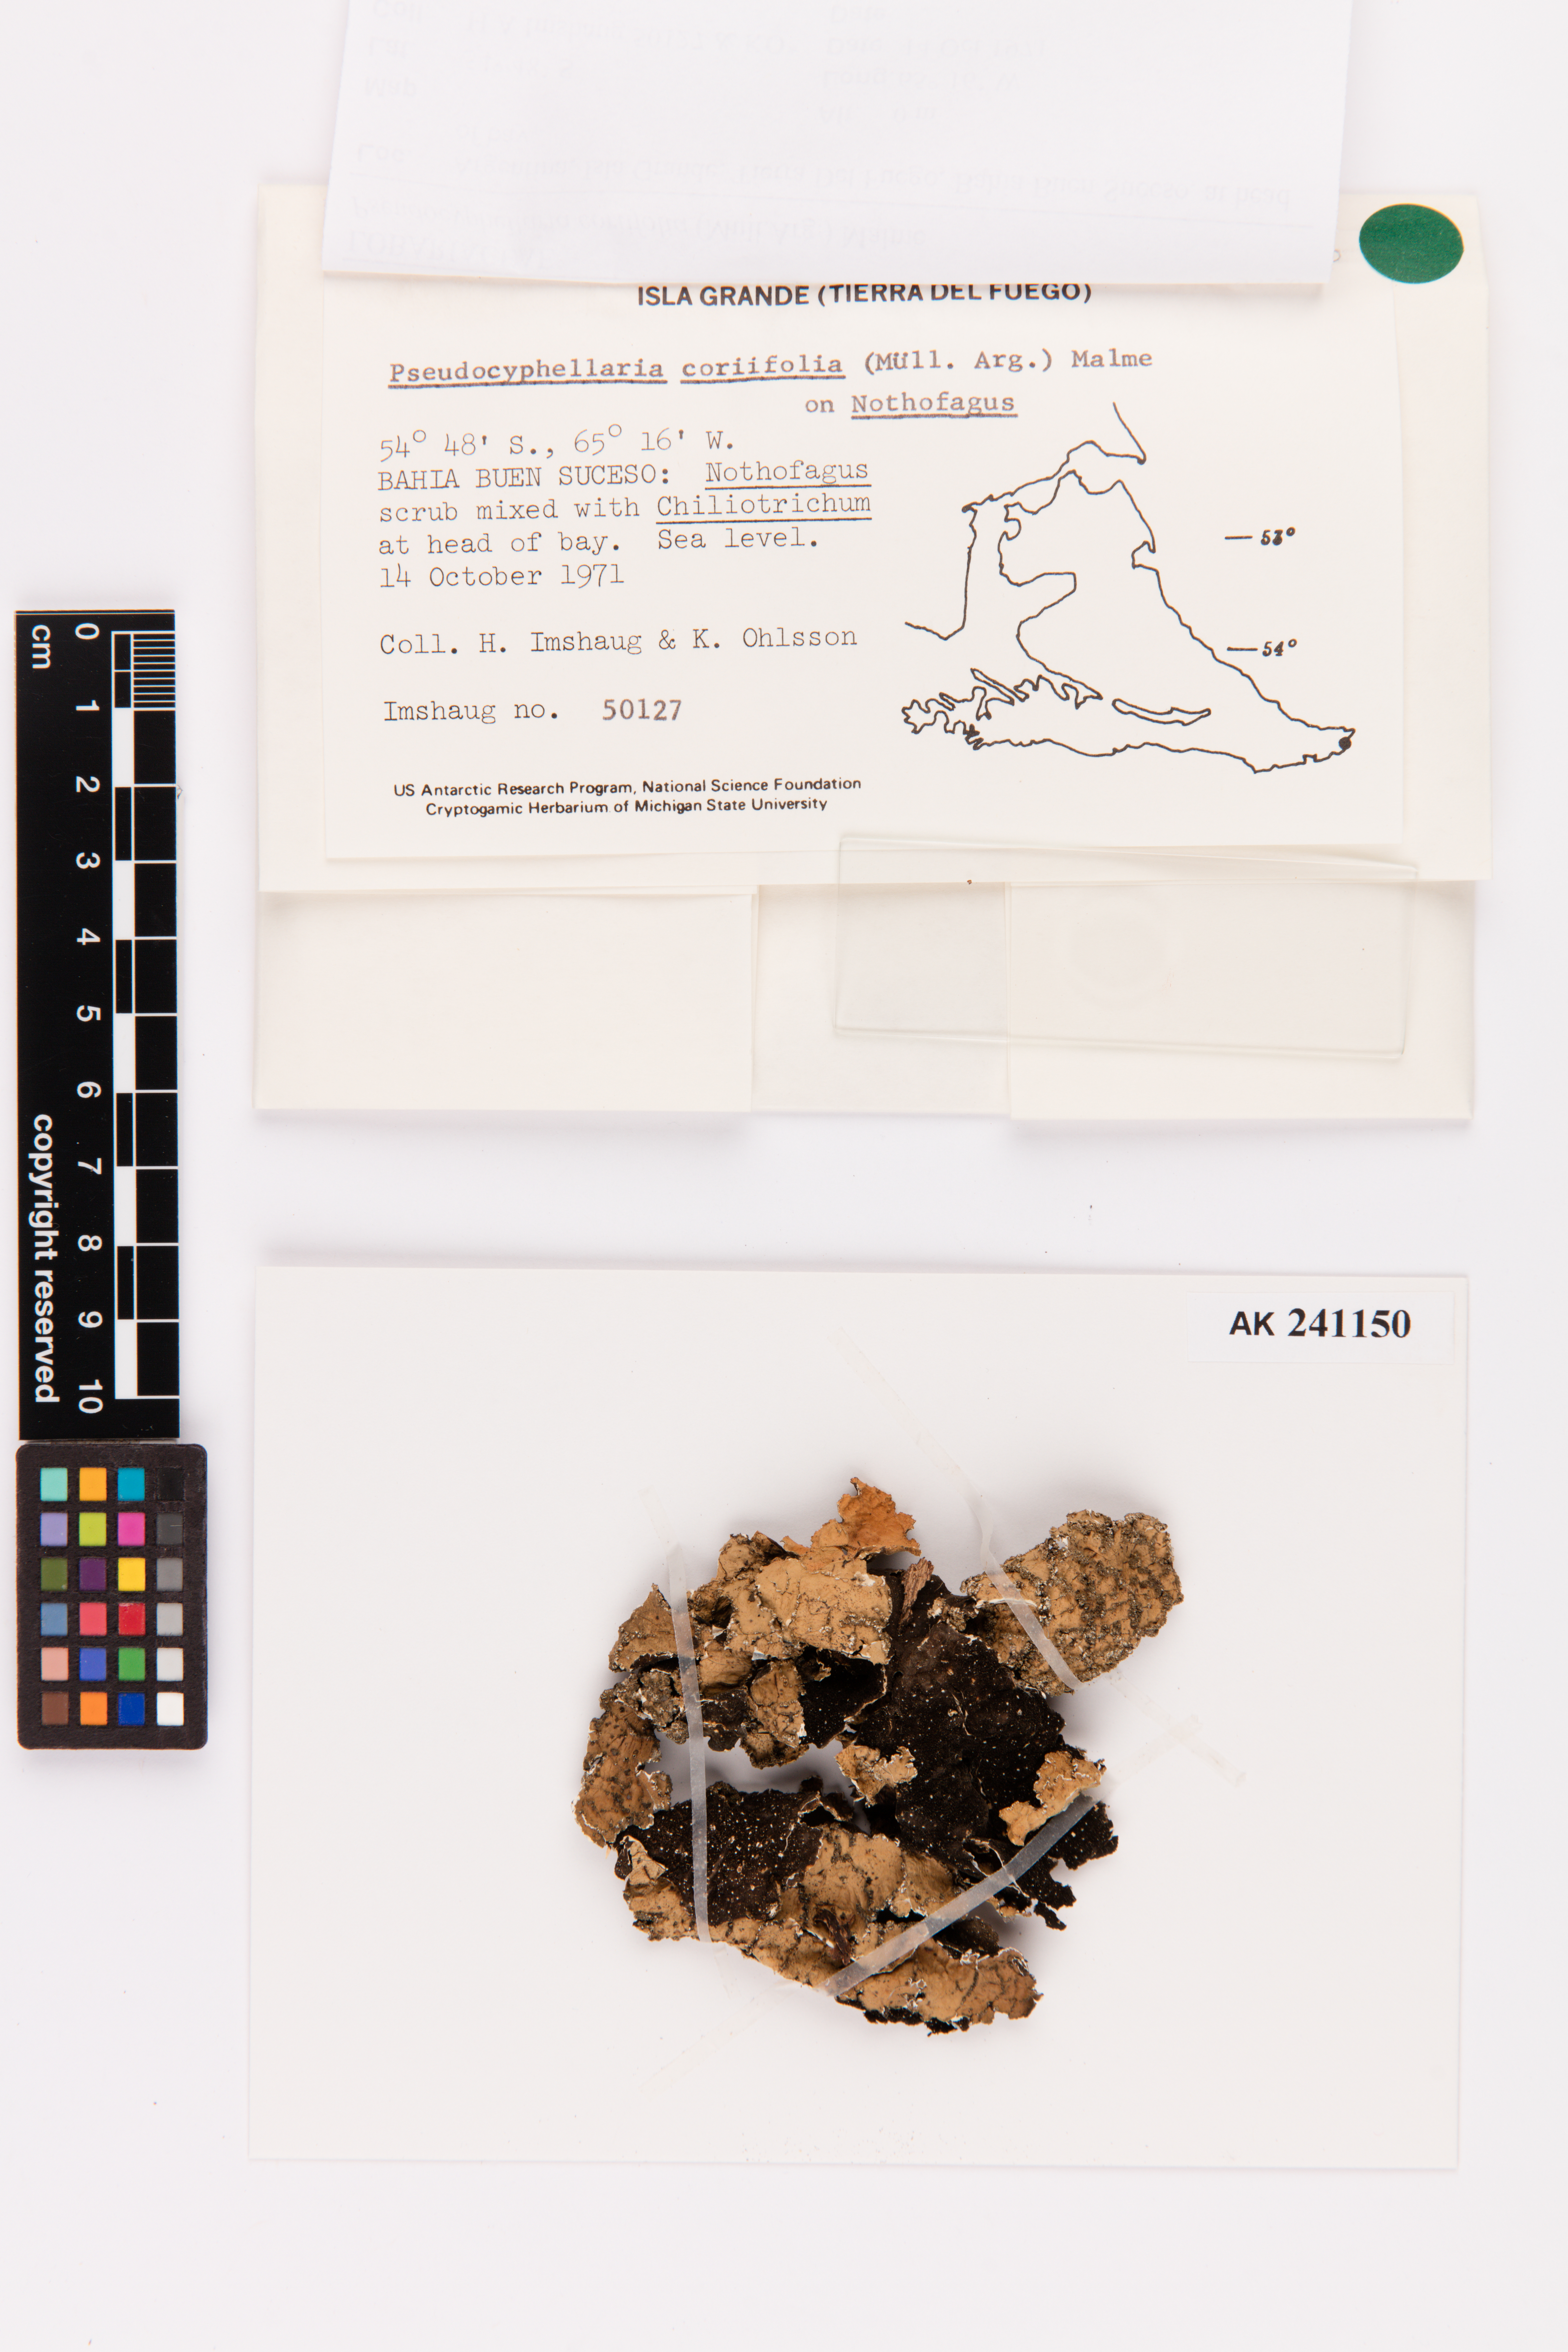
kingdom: Fungi
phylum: Ascomycota
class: Lecanoromycetes
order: Peltigerales
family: Lobariaceae
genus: Pseudocyphellaria
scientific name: Pseudocyphellaria coriifolia
